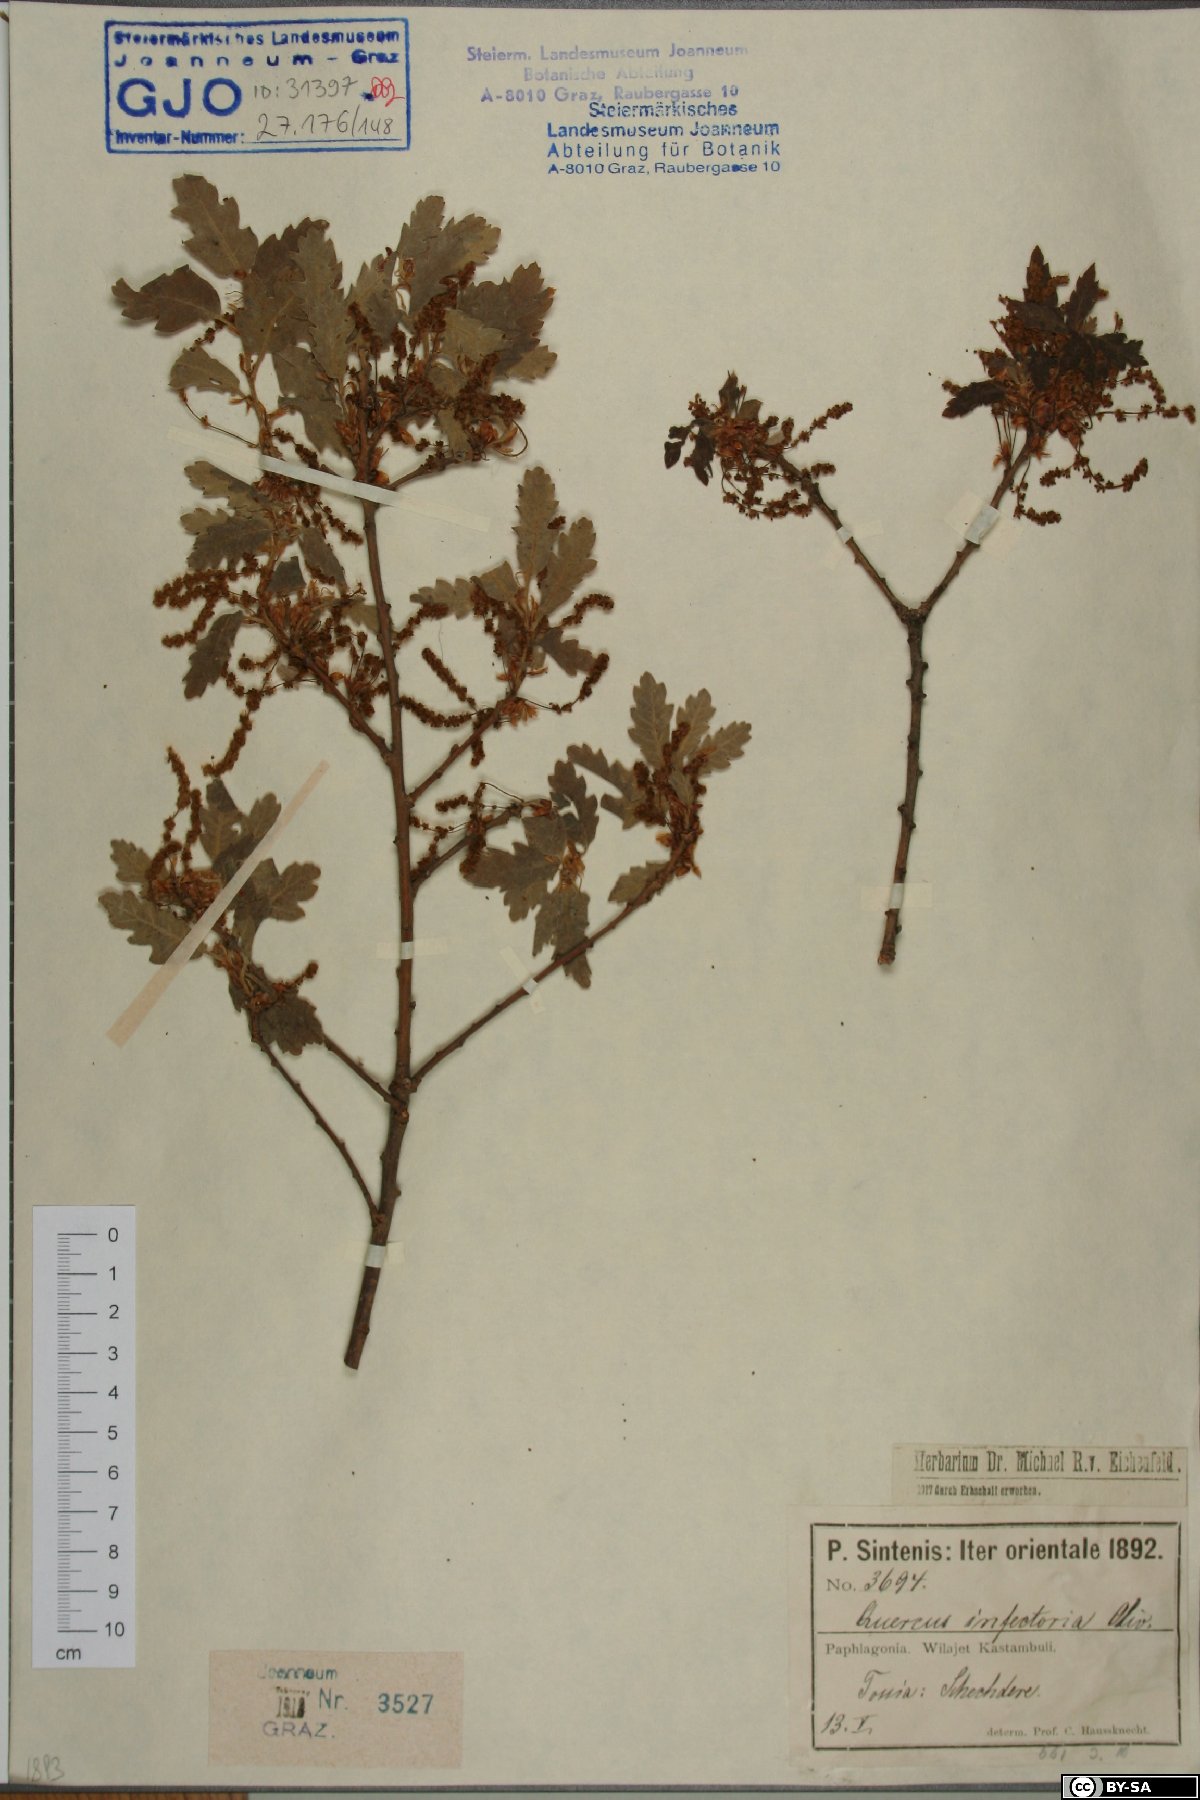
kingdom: Plantae
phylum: Tracheophyta
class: Magnoliopsida
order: Fagales
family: Fagaceae
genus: Quercus
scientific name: Quercus infectoria
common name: Aleppo oak
